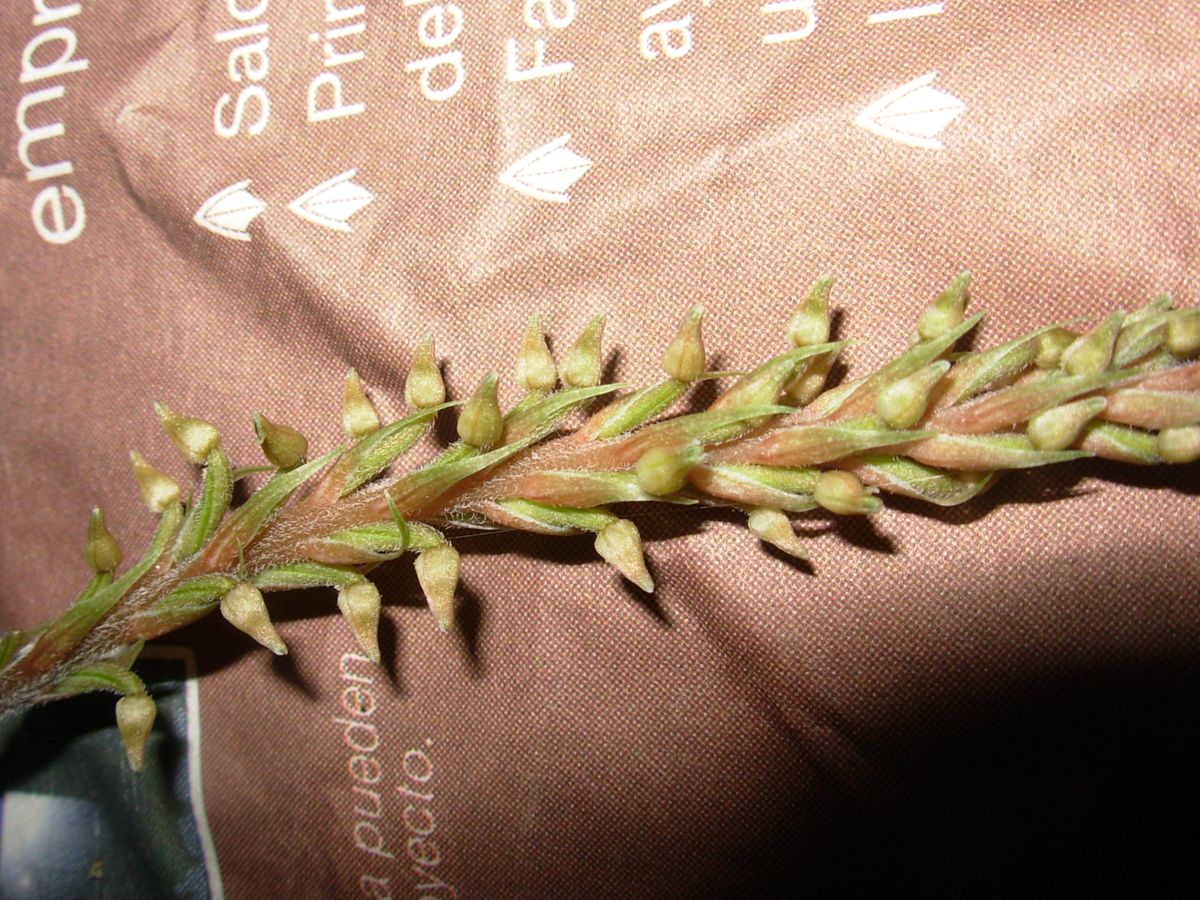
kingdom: Plantae
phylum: Tracheophyta
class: Liliopsida
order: Asparagales
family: Orchidaceae
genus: Goodyera
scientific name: Goodyera striata
